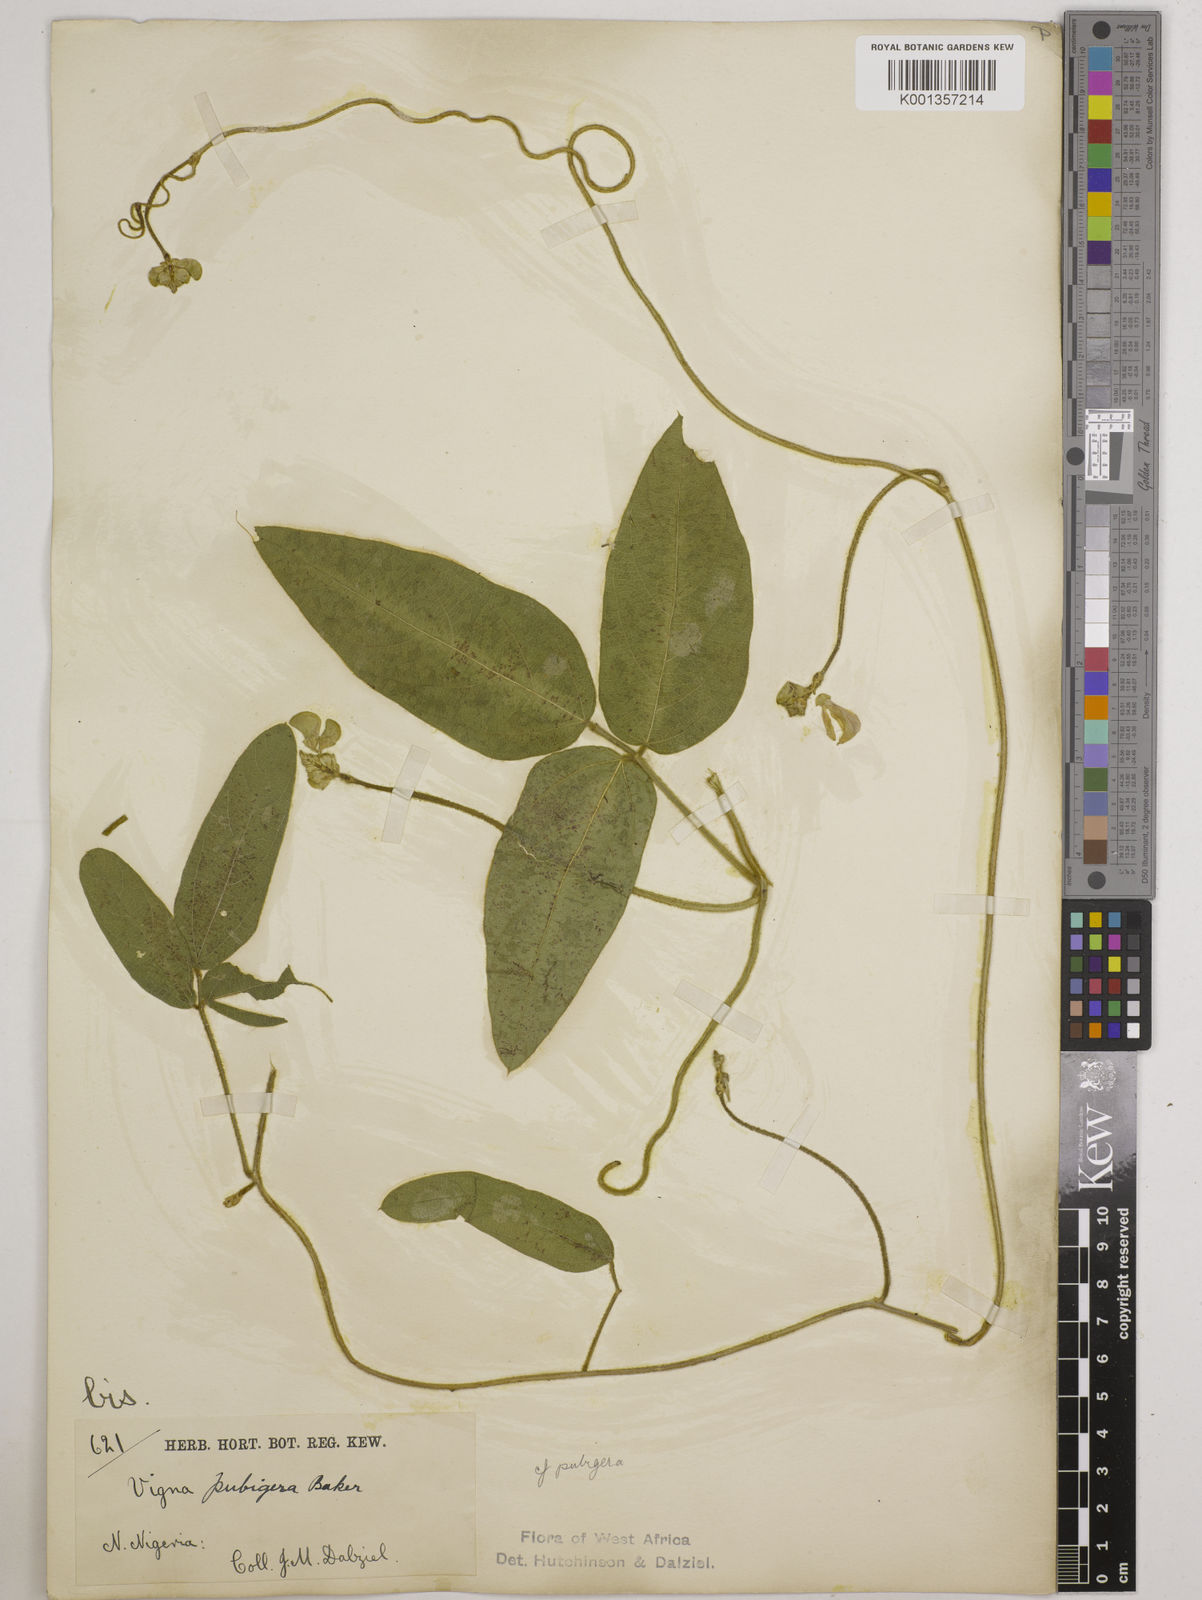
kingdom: Plantae
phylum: Tracheophyta
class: Magnoliopsida
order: Fabales
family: Fabaceae
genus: Vigna
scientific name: Vigna ambacensis
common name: Tsarkiyan zomo
